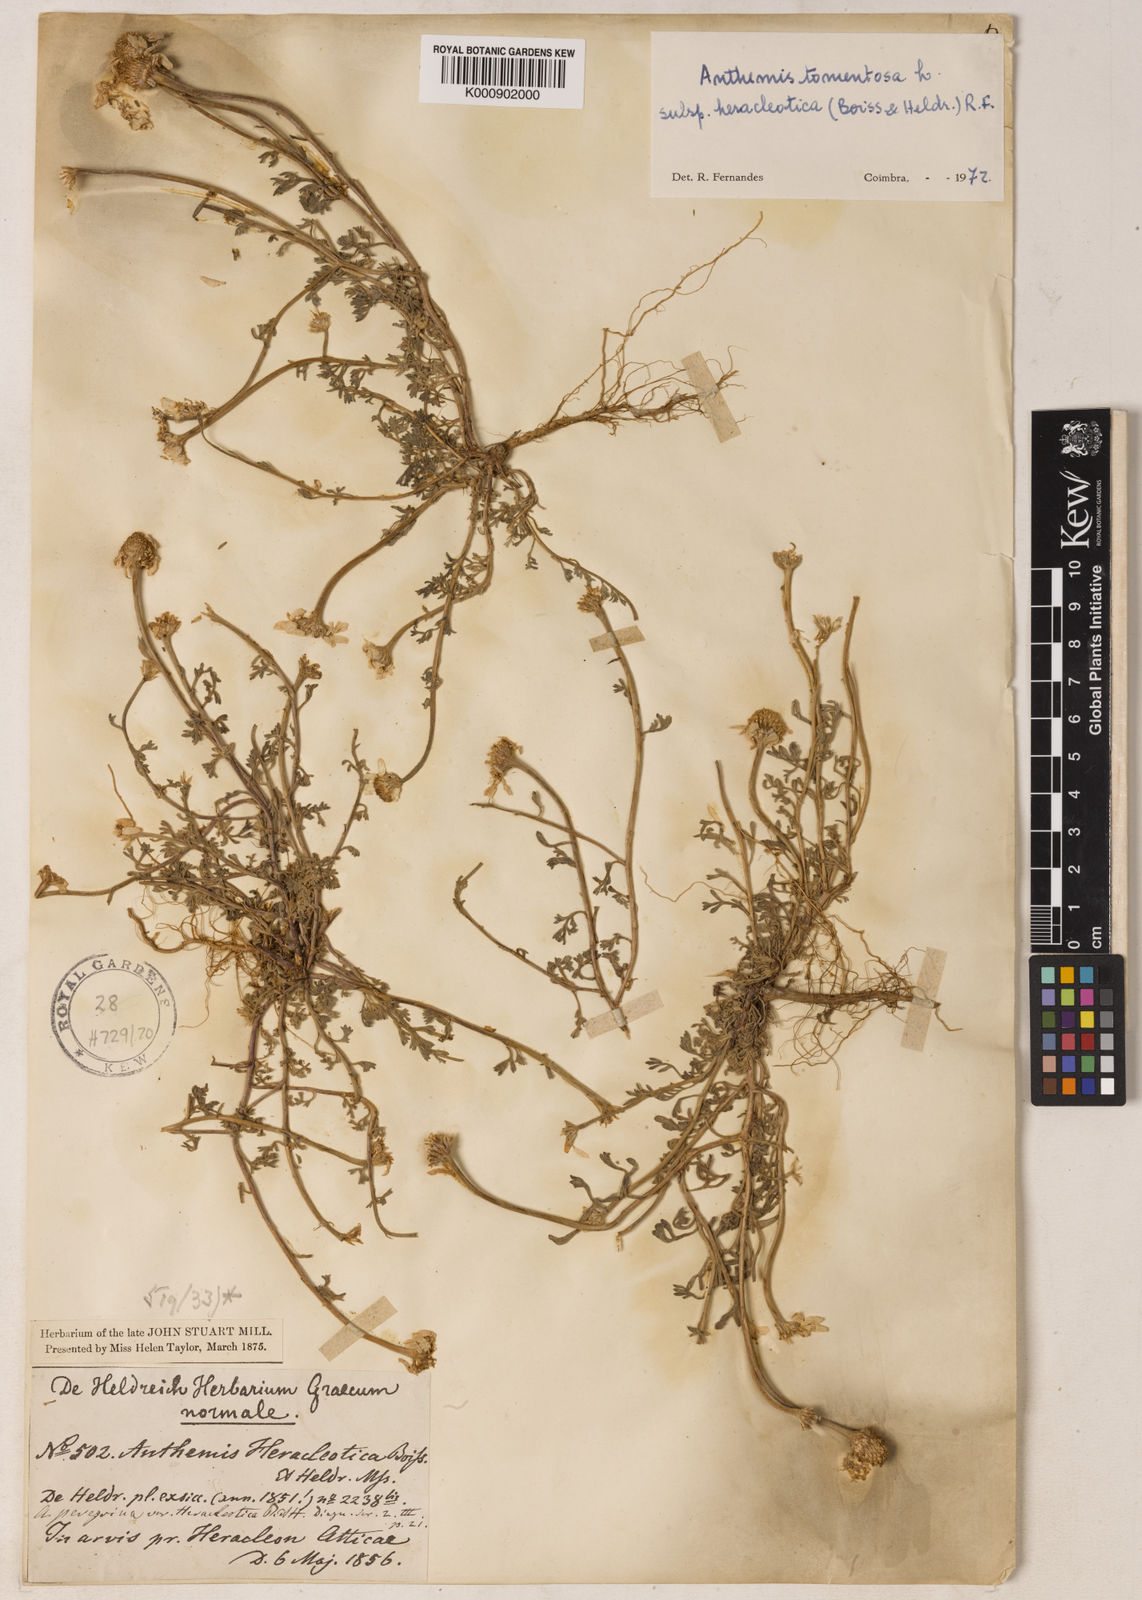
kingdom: Plantae
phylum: Tracheophyta
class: Magnoliopsida
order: Asterales
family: Asteraceae
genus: Anthemis
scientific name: Anthemis tomentosa
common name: Woolly chamomile
